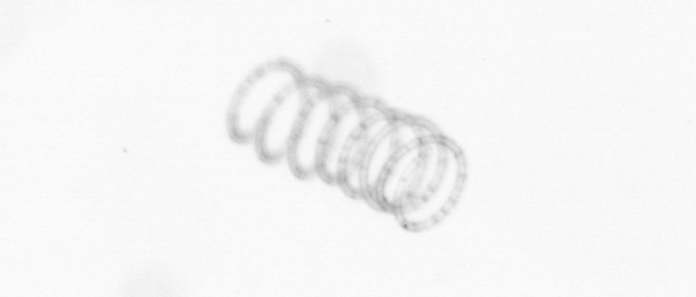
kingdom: Chromista
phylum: Ochrophyta
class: Bacillariophyceae
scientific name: Bacillariophyceae
